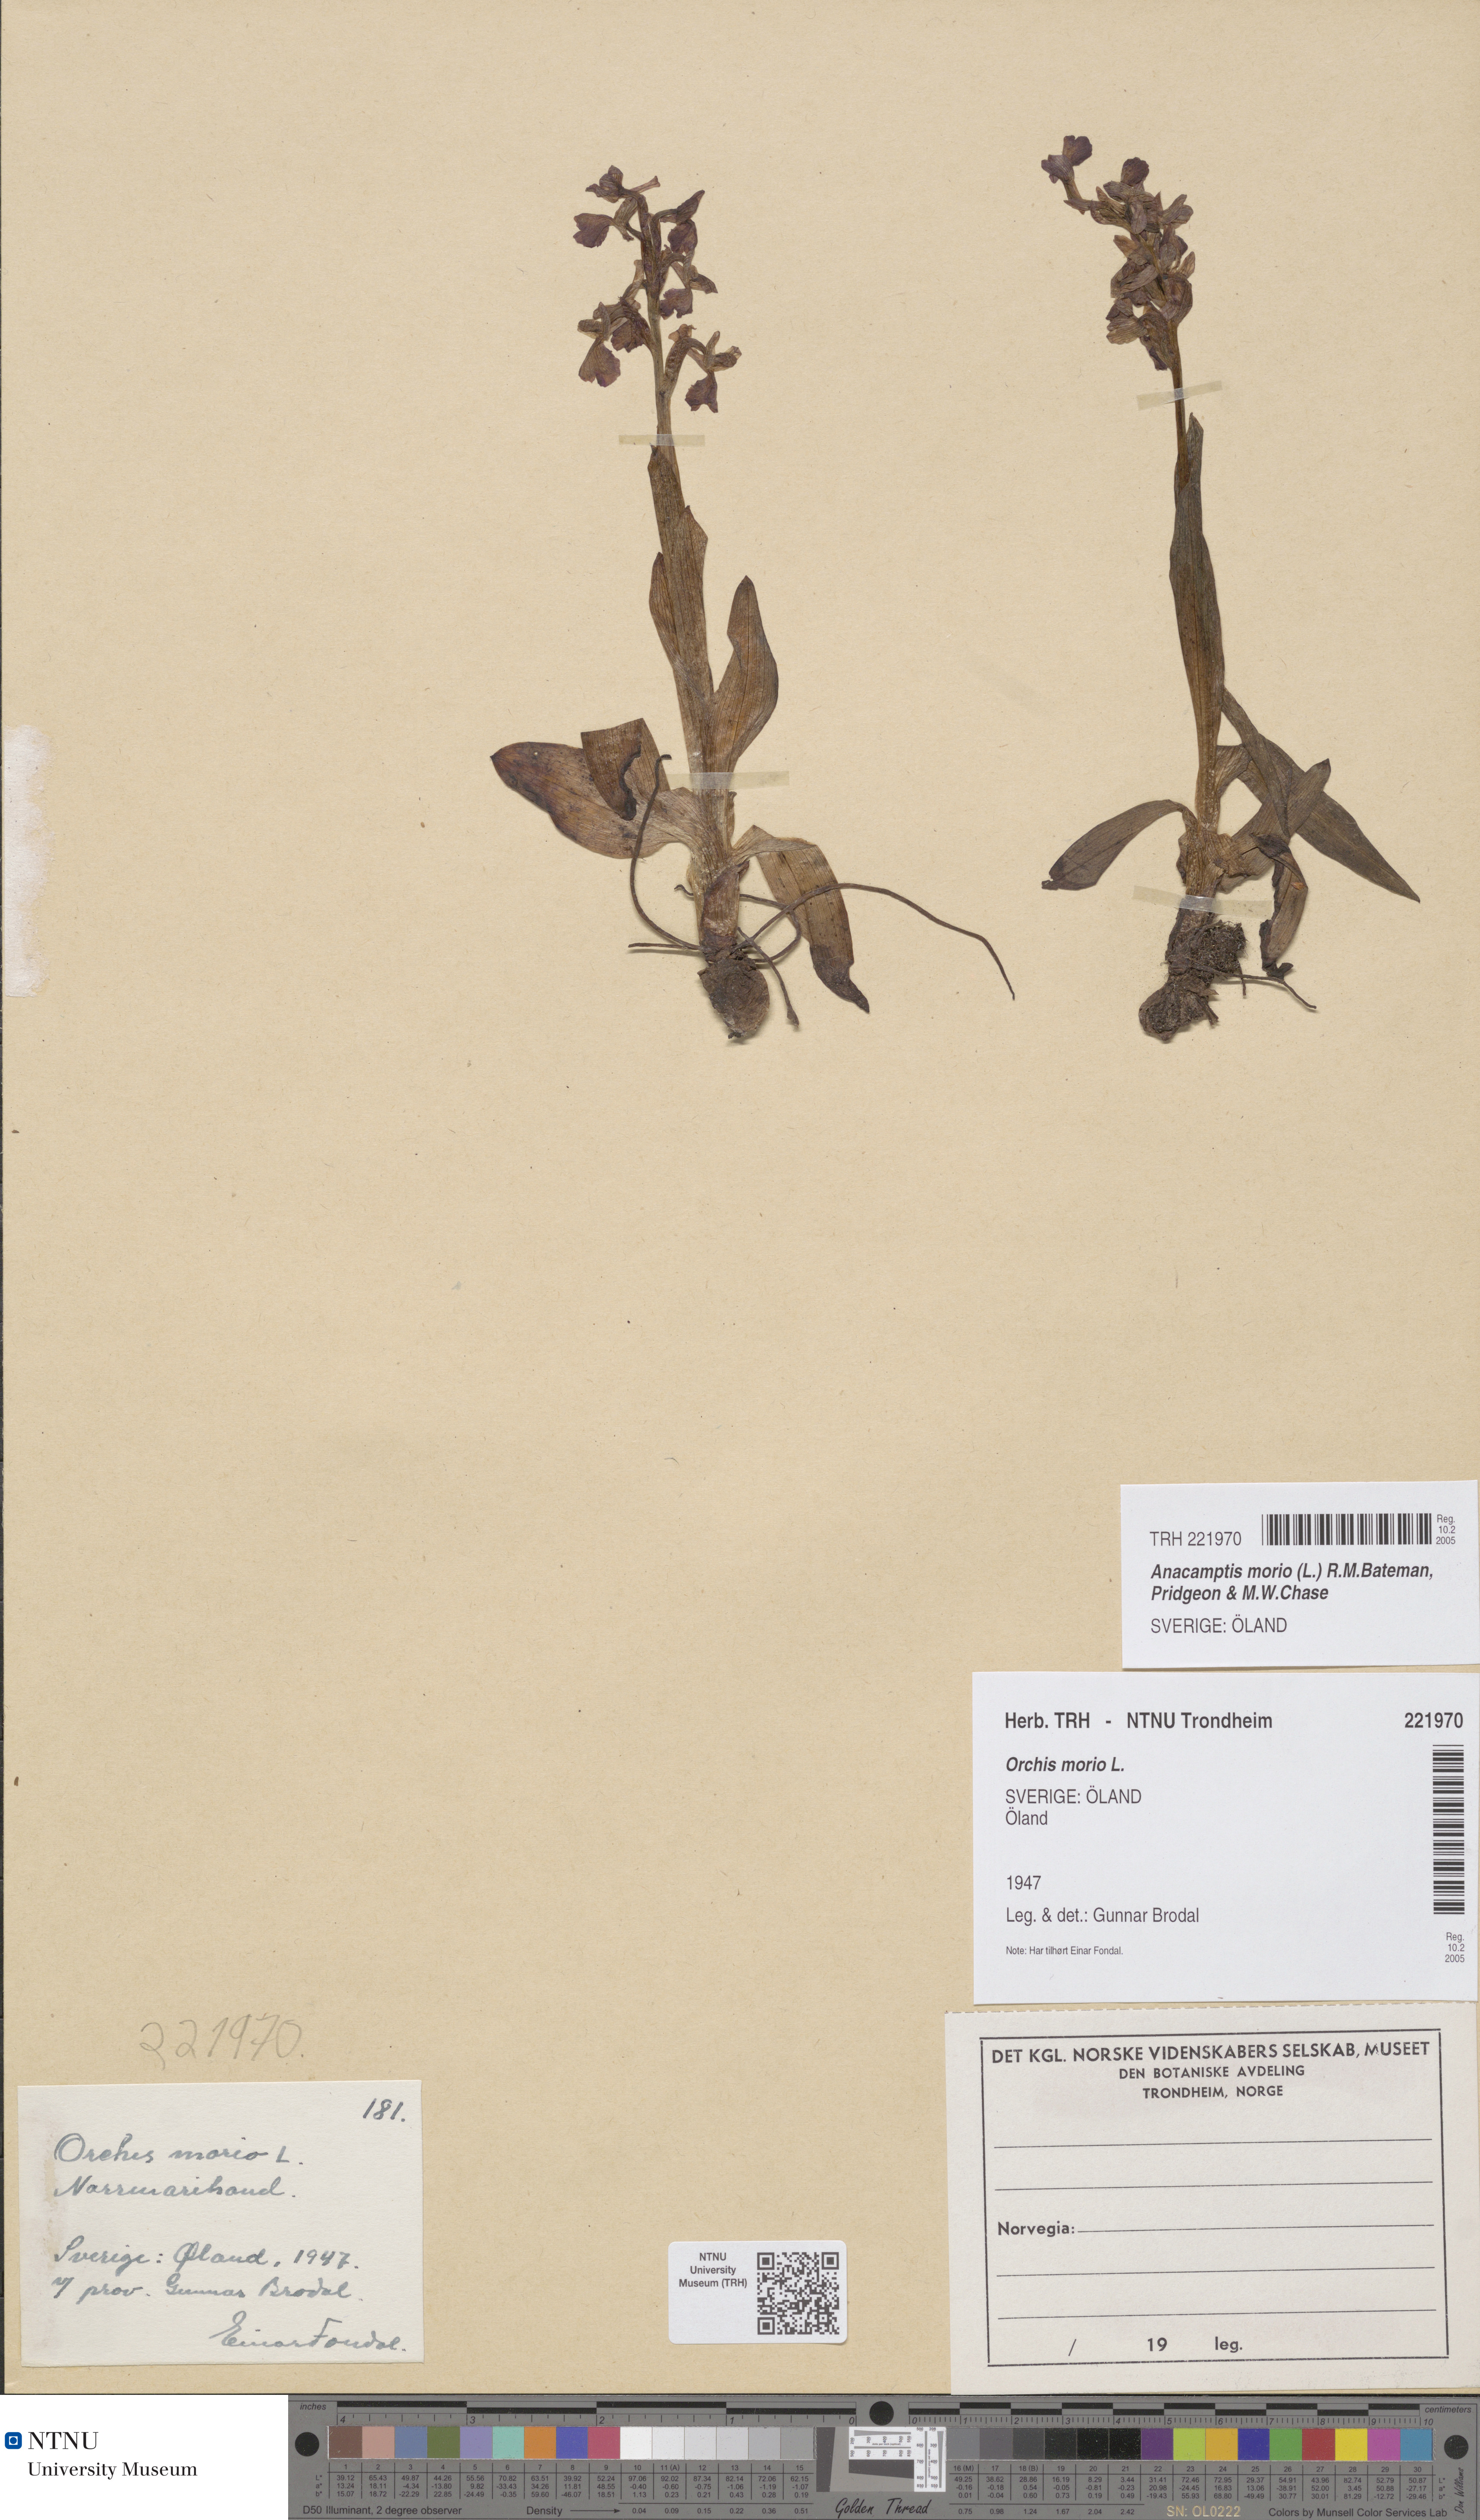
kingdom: Plantae
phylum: Tracheophyta
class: Liliopsida
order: Asparagales
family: Orchidaceae
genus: Anacamptis
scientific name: Anacamptis morio
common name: Green-winged orchid
